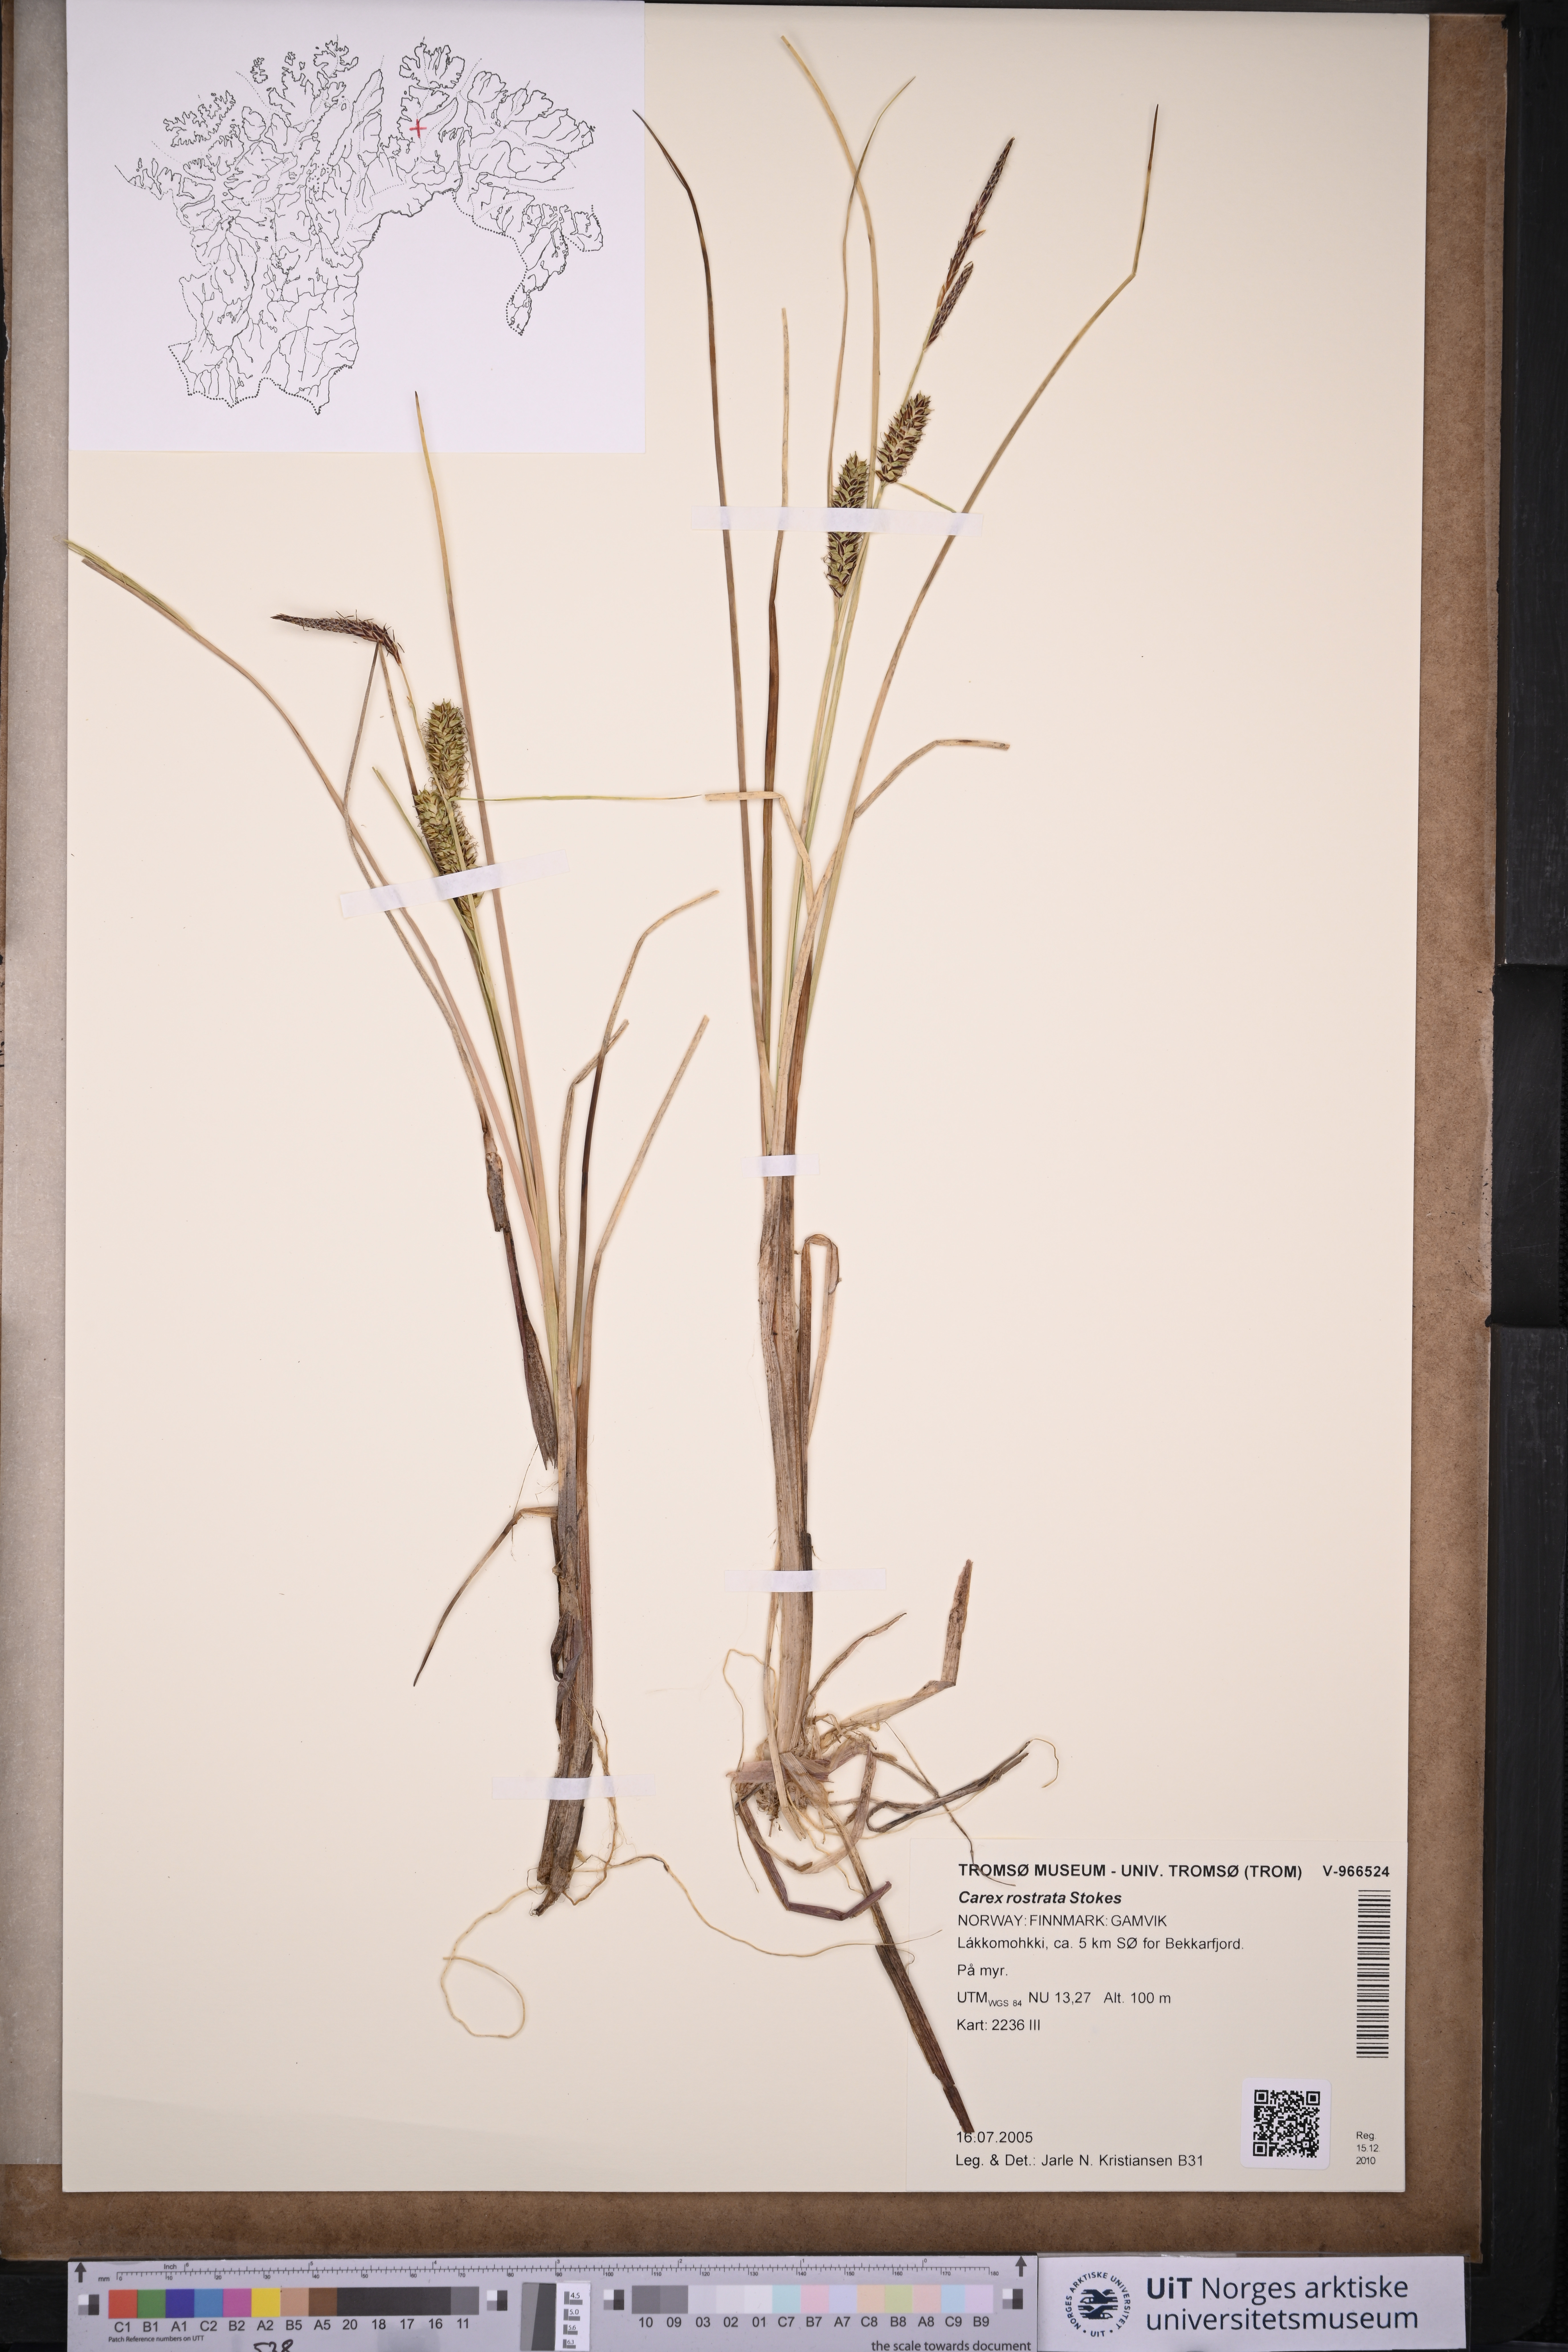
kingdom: Plantae
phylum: Tracheophyta
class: Liliopsida
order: Poales
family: Cyperaceae
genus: Carex
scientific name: Carex rostrata
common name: Bottle sedge
